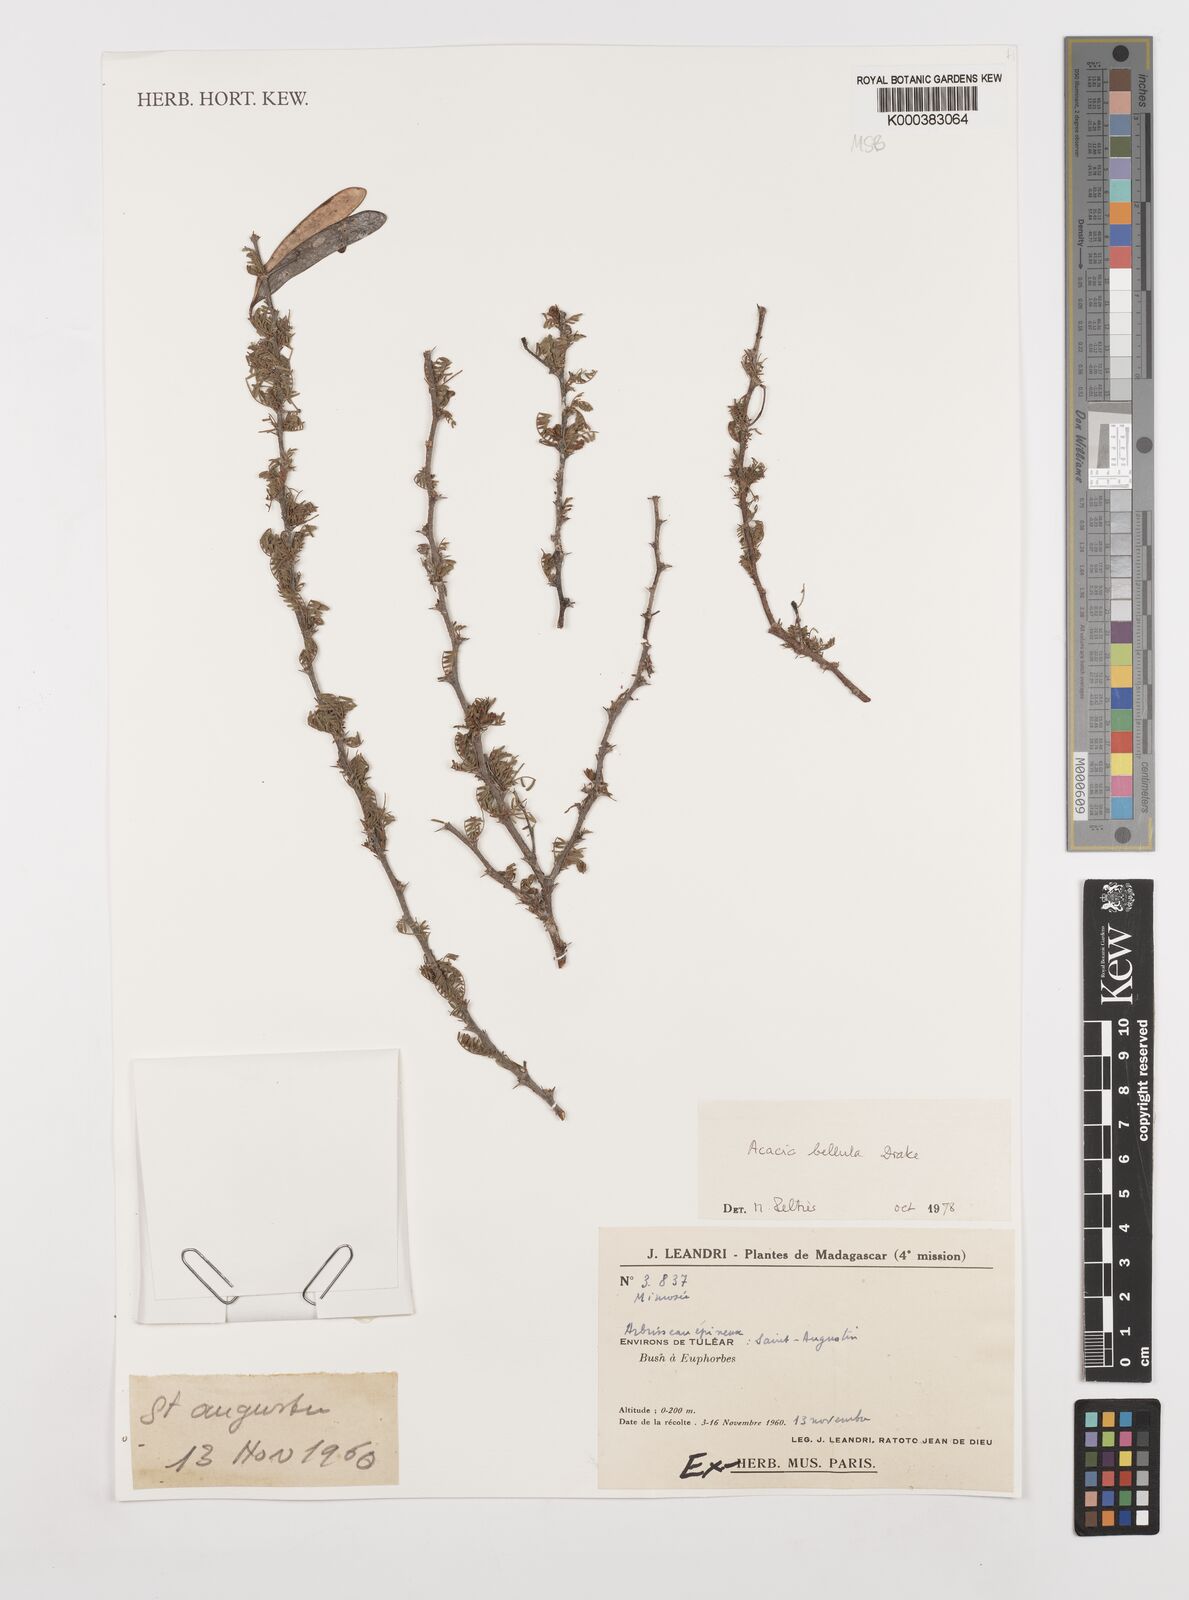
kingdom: Plantae
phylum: Tracheophyta
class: Magnoliopsida
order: Fabales
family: Fabaceae
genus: Vachellia
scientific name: Vachellia bellula
